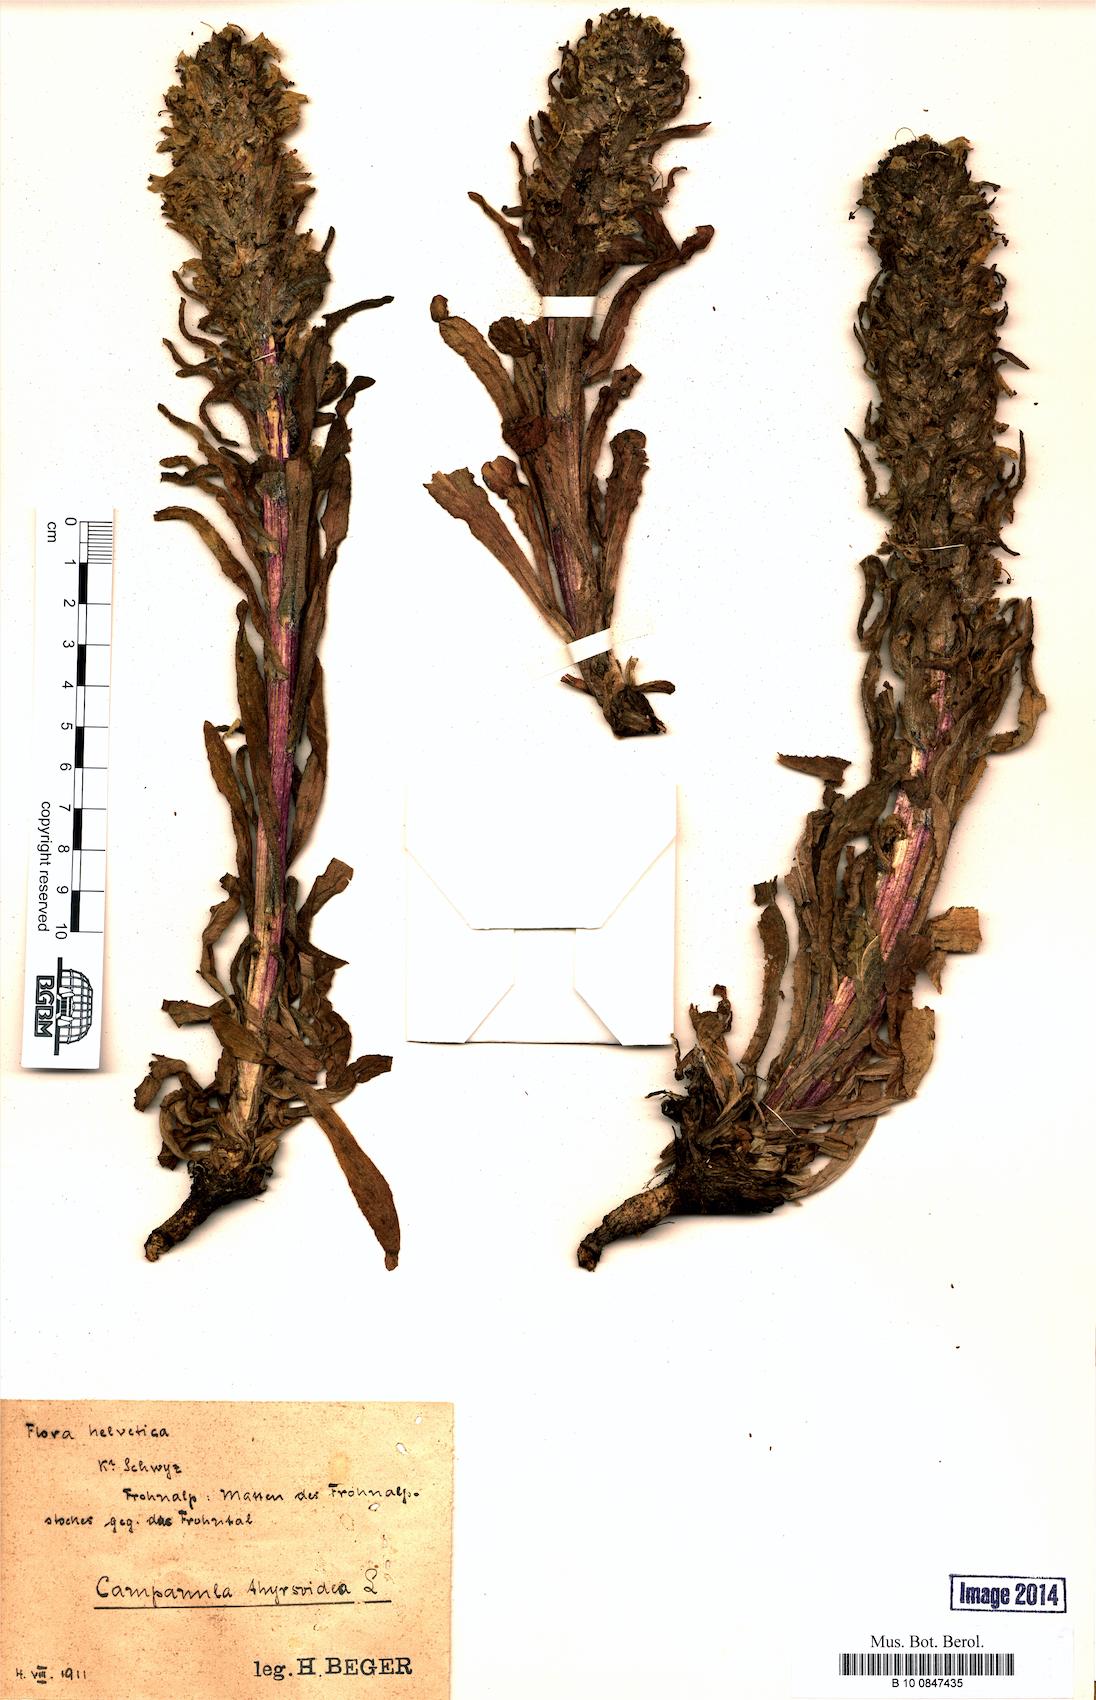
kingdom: Plantae
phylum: Tracheophyta
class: Magnoliopsida
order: Asterales
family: Campanulaceae
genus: Campanula
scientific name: Campanula thyrsoides
